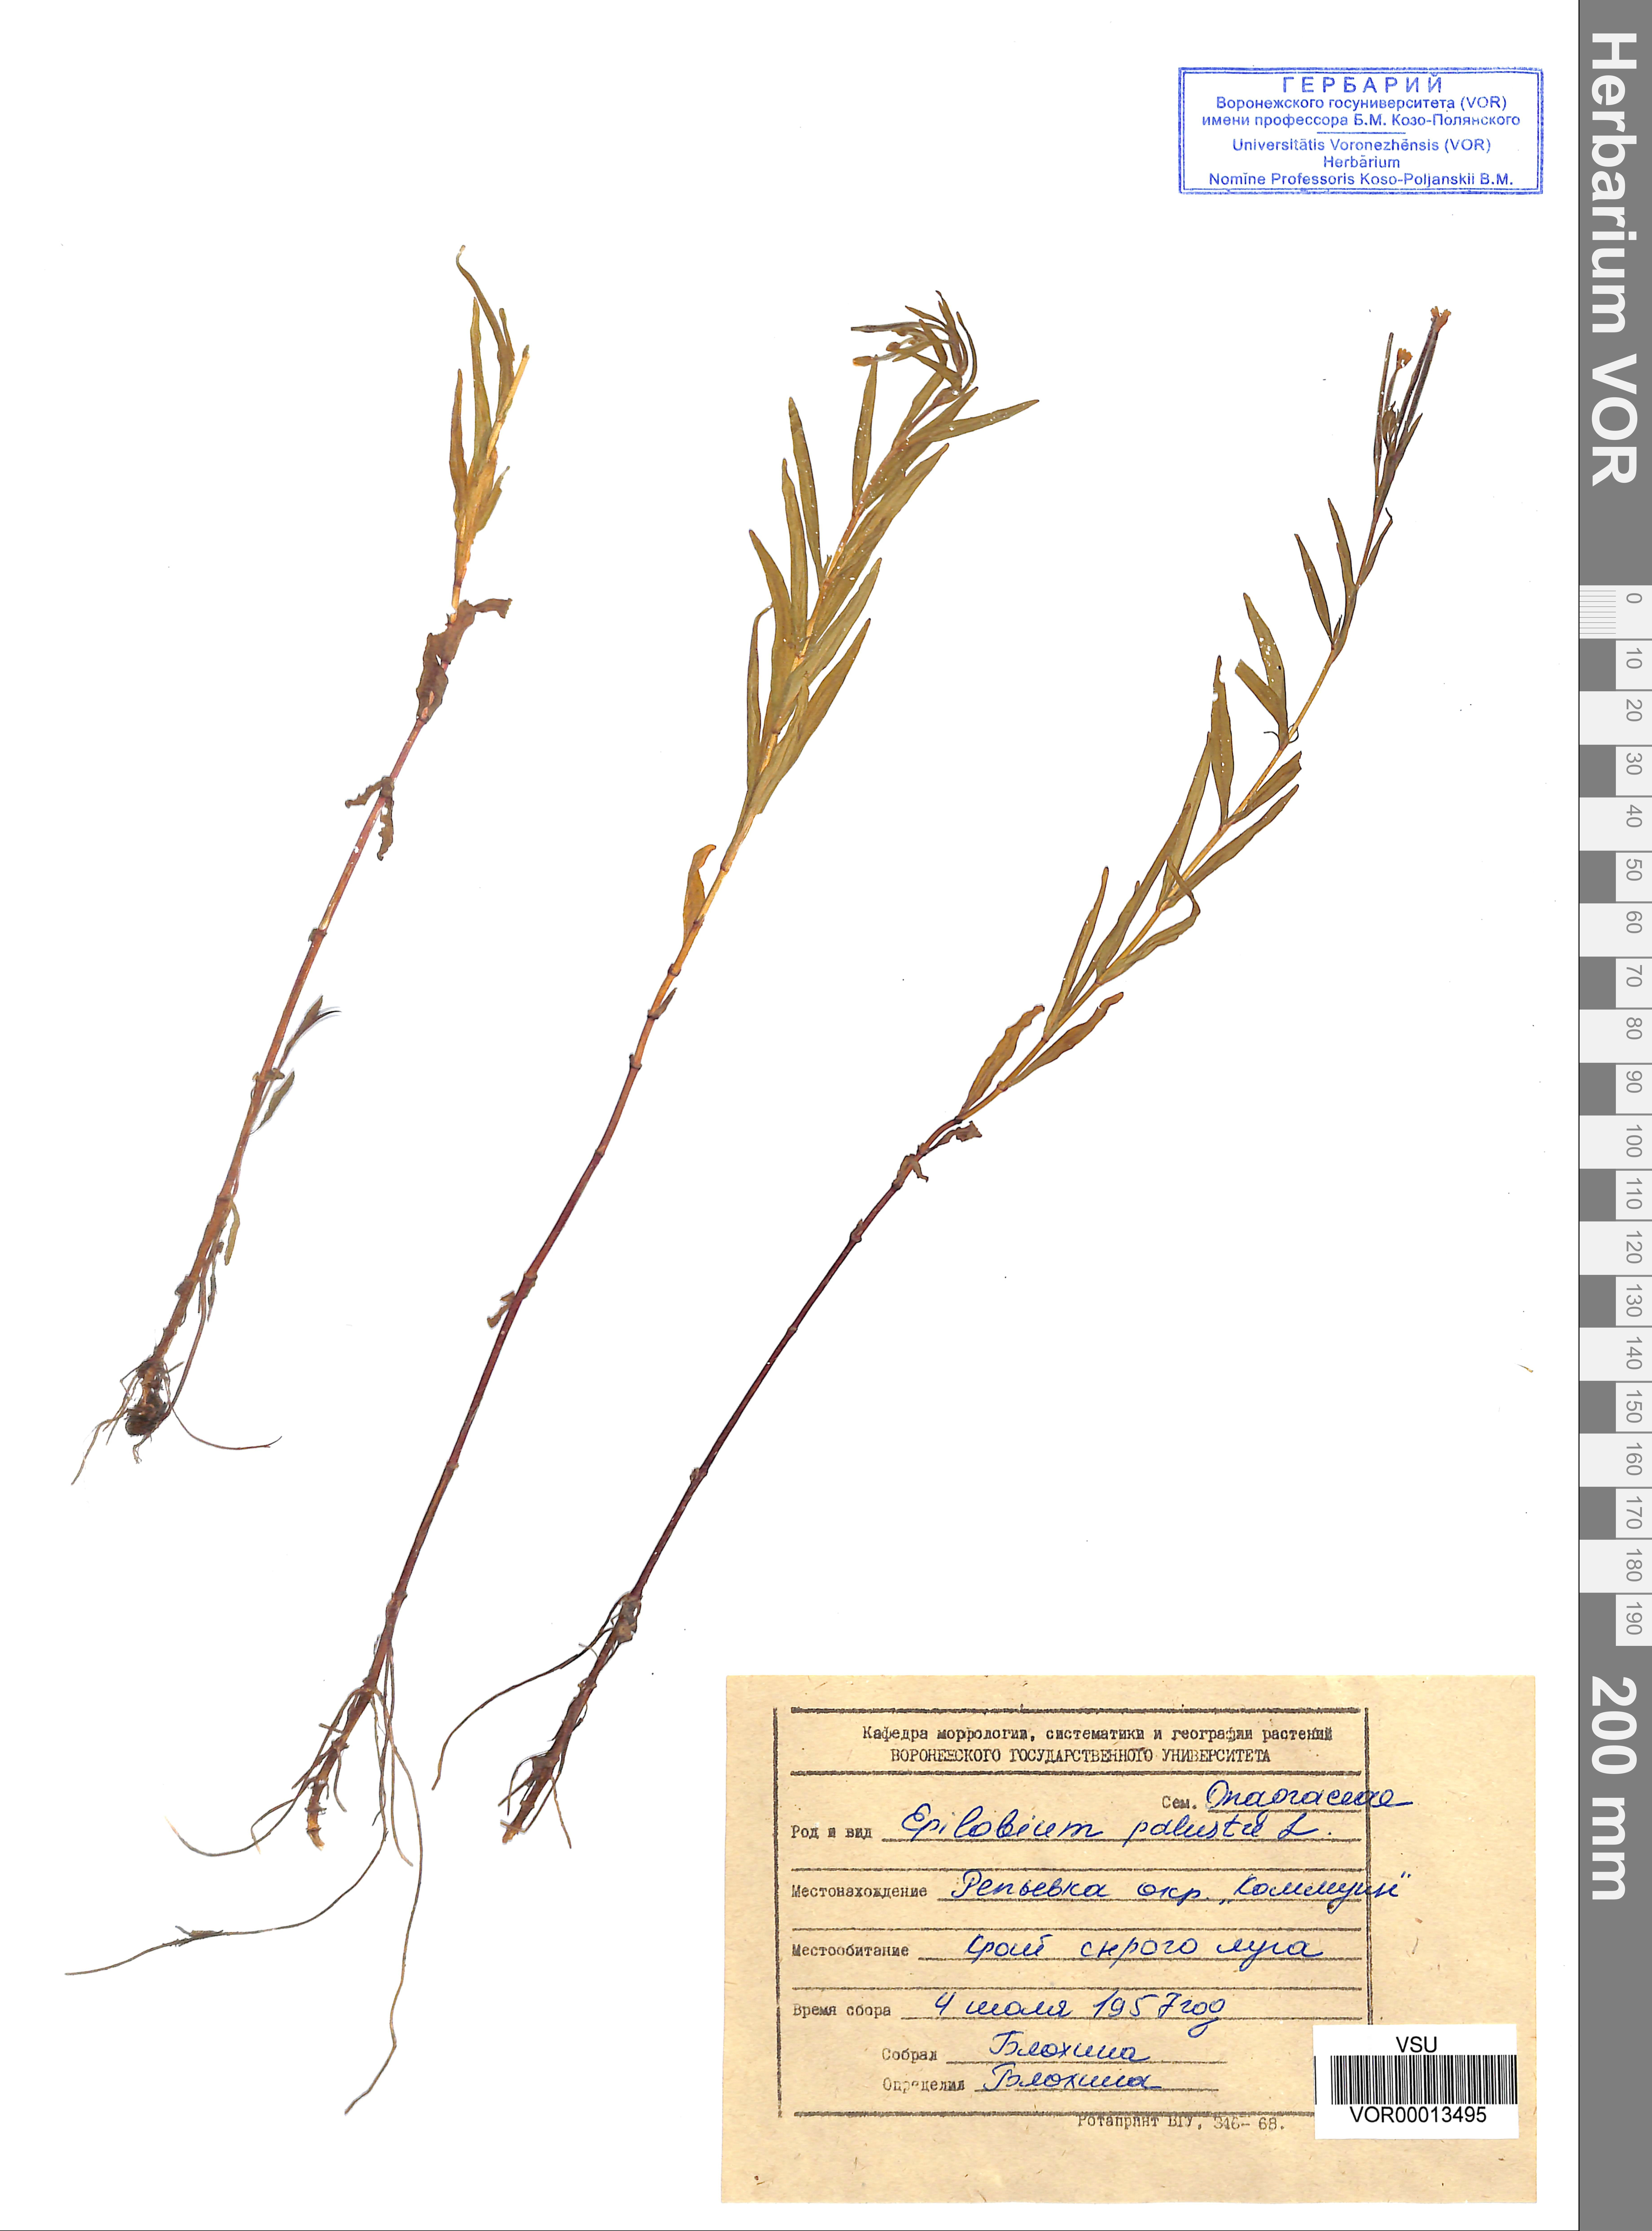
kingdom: Plantae
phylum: Tracheophyta
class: Magnoliopsida
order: Myrtales
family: Onagraceae
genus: Epilobium
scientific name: Epilobium palustre
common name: Marsh willowherb
